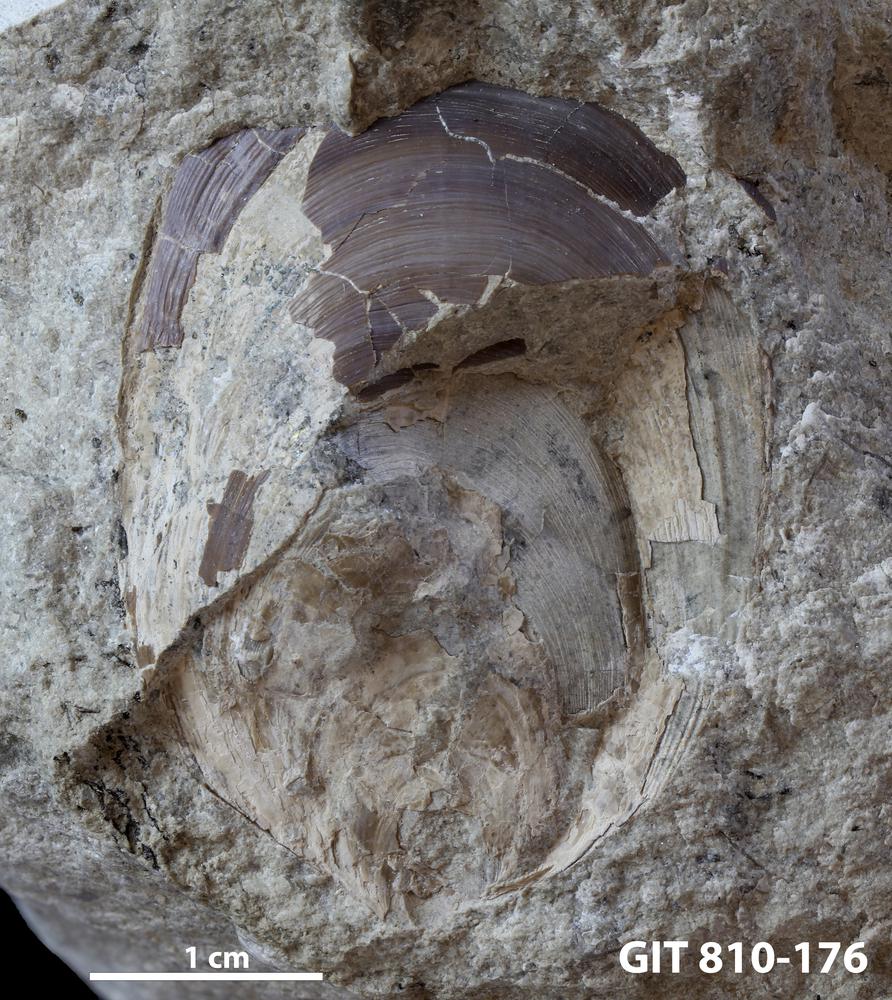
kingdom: Animalia
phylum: Brachiopoda
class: Lingulata
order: Lingulida
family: Pseudolingulidae
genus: Pseudolingula
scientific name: Pseudolingula Crania quadrata
